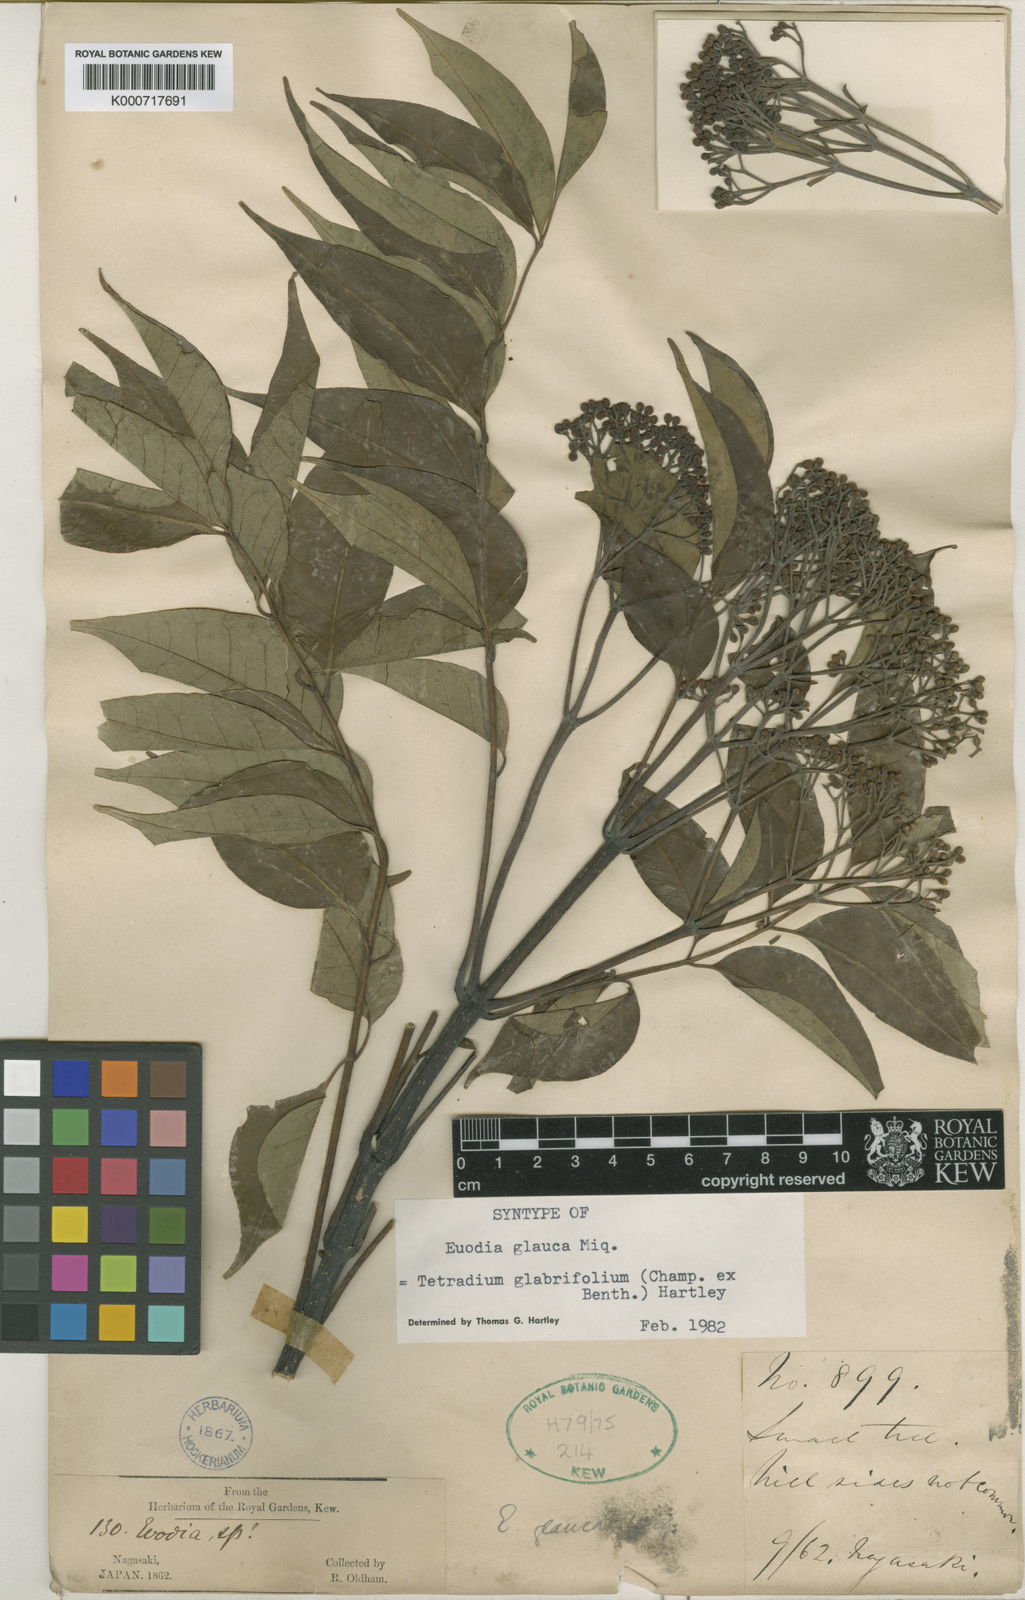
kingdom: Plantae
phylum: Tracheophyta
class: Magnoliopsida
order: Sapindales
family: Rutaceae
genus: Tetradium
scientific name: Tetradium glabrifolium
